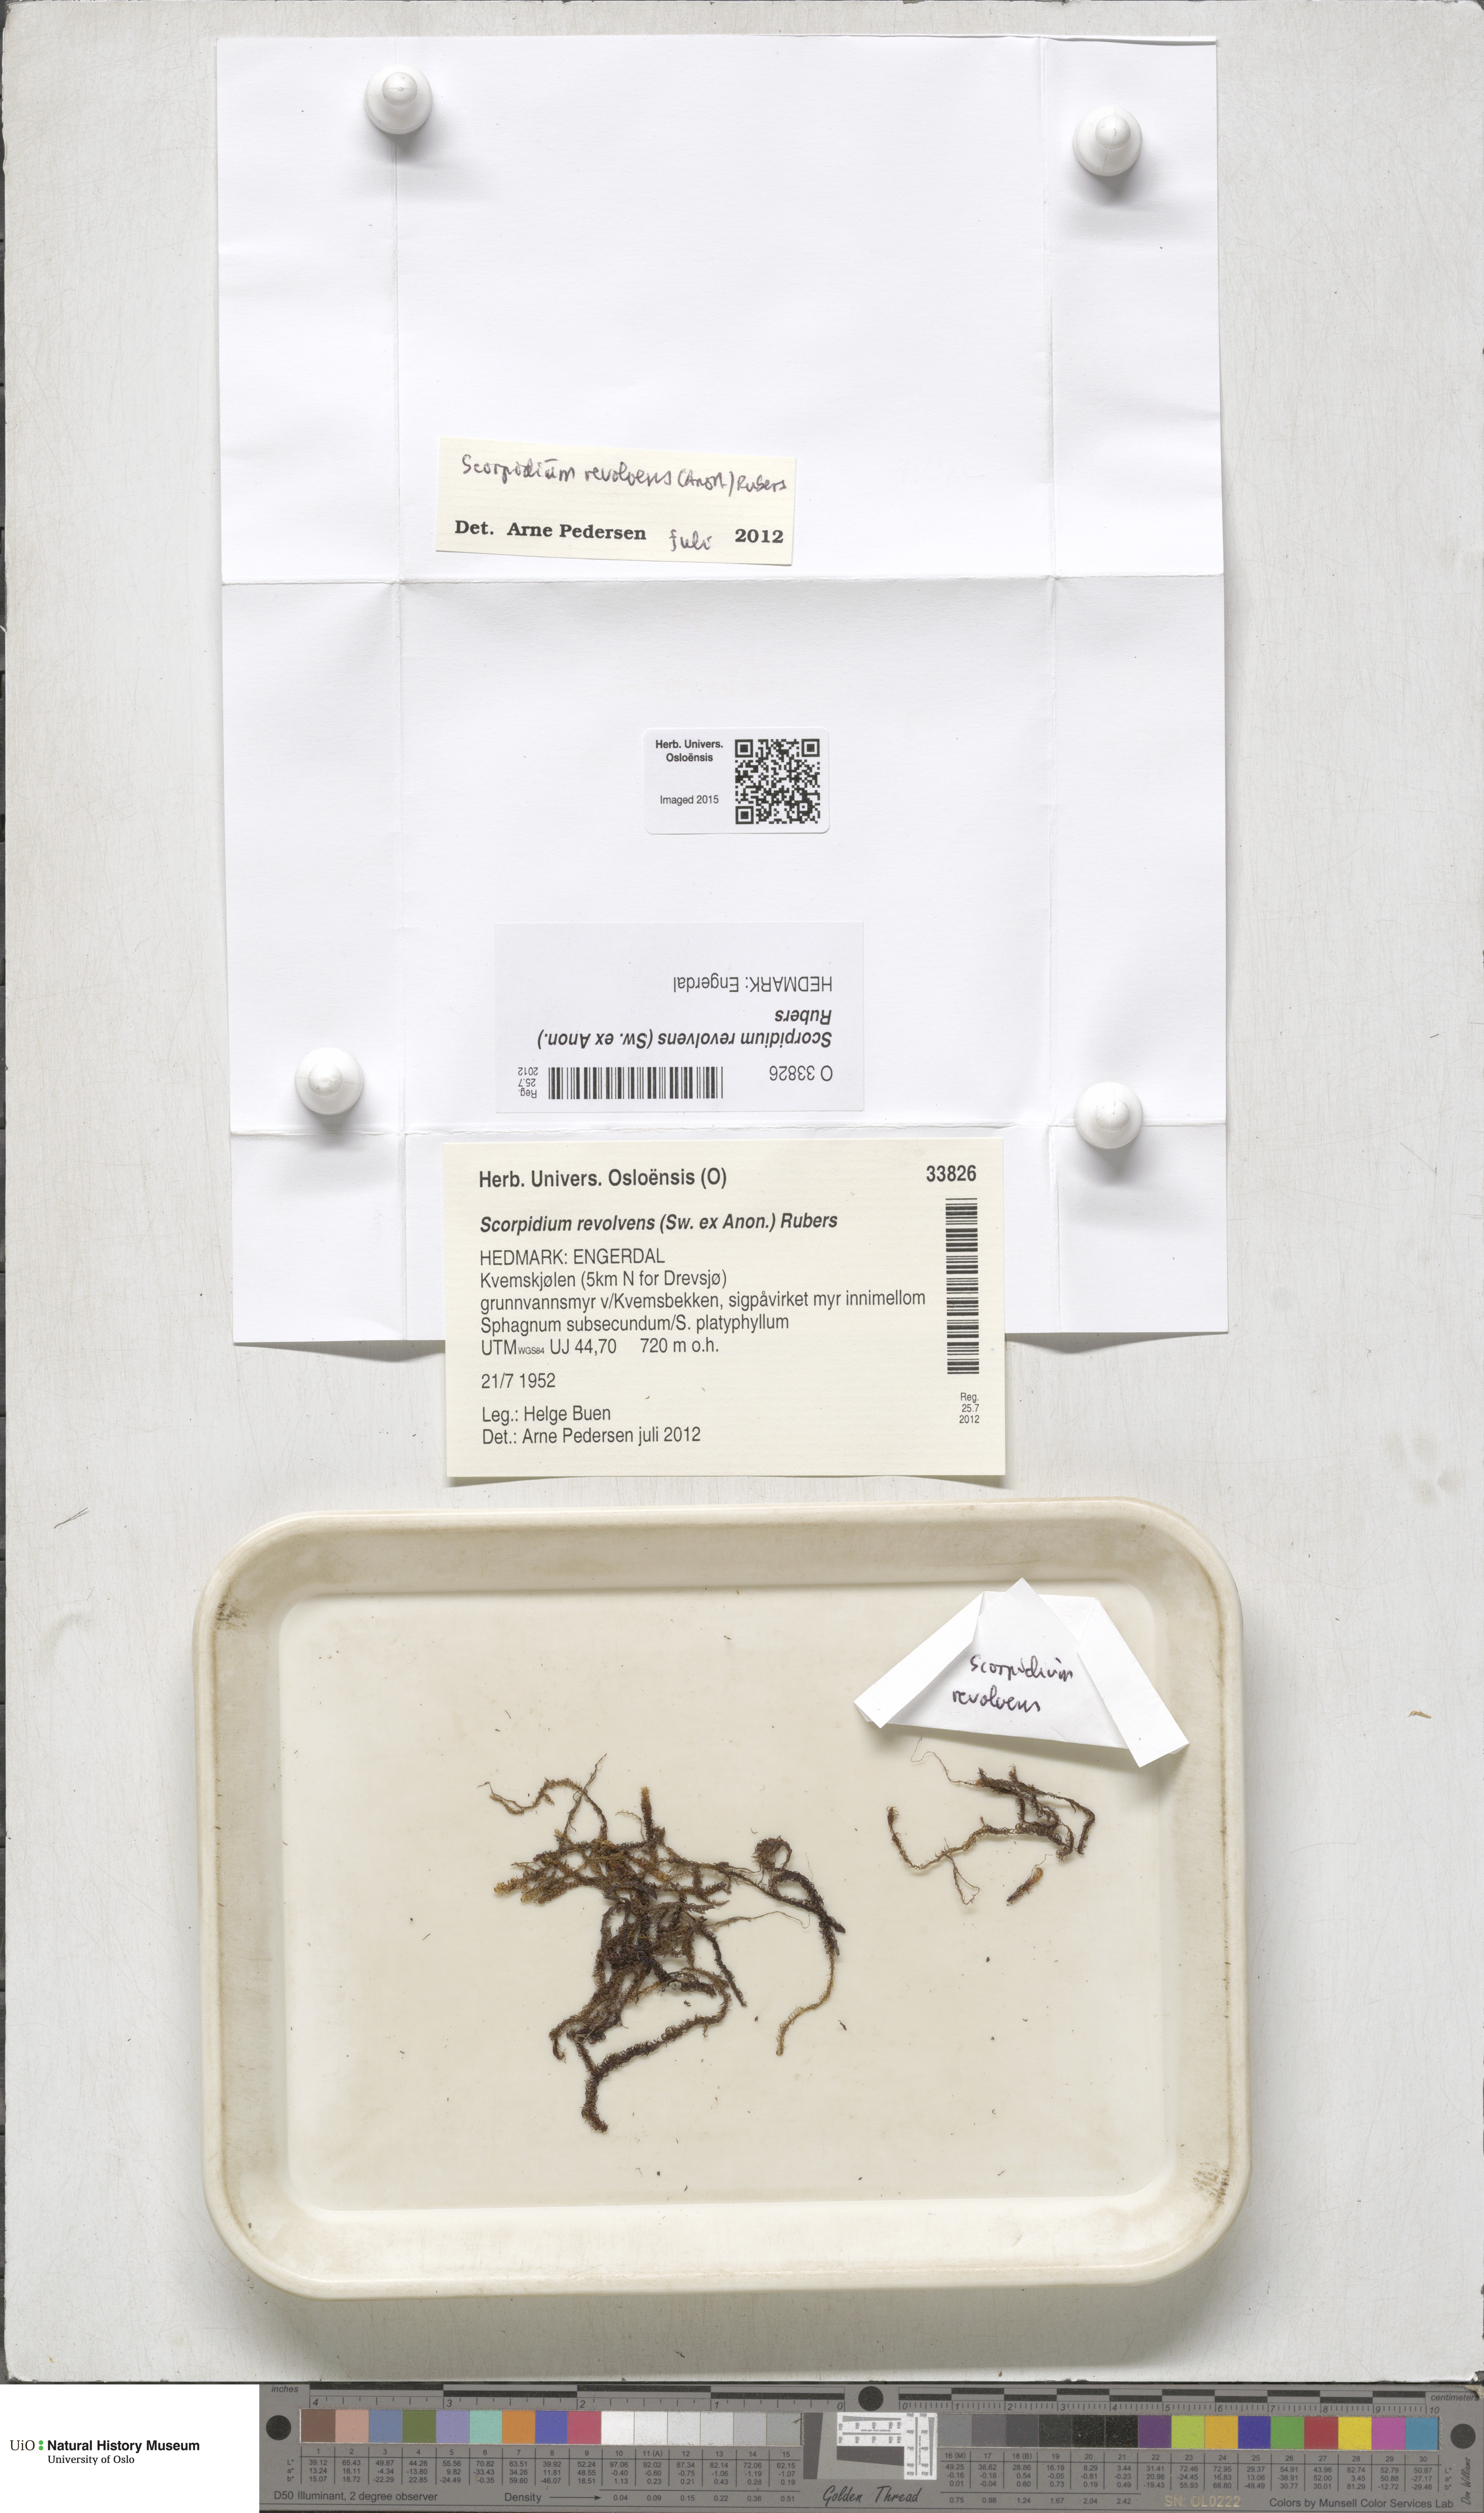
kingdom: Plantae
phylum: Bryophyta
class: Bryopsida
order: Hypnales
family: Scorpidiaceae
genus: Scorpidium
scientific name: Scorpidium revolvens
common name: Rusty hook moss
